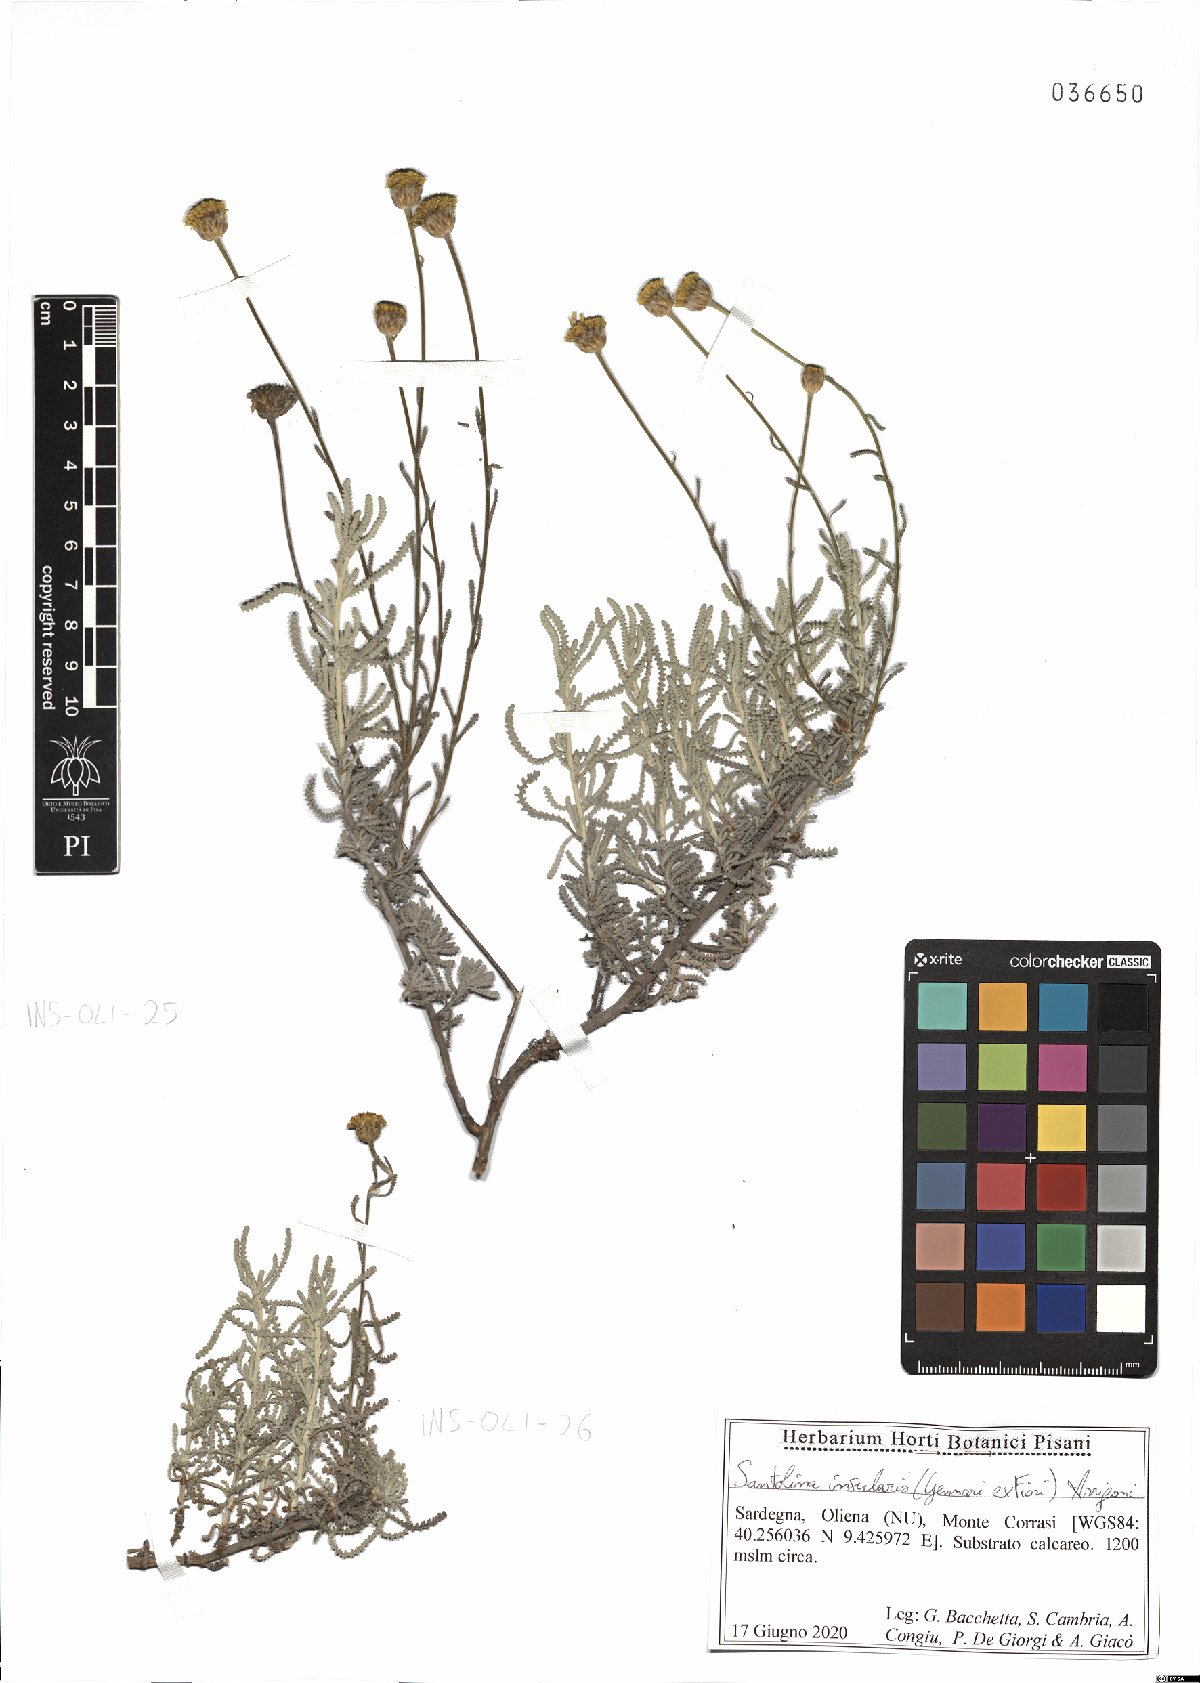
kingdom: Plantae
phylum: Tracheophyta
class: Magnoliopsida
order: Asterales
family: Asteraceae
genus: Santolina
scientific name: Santolina insularis
